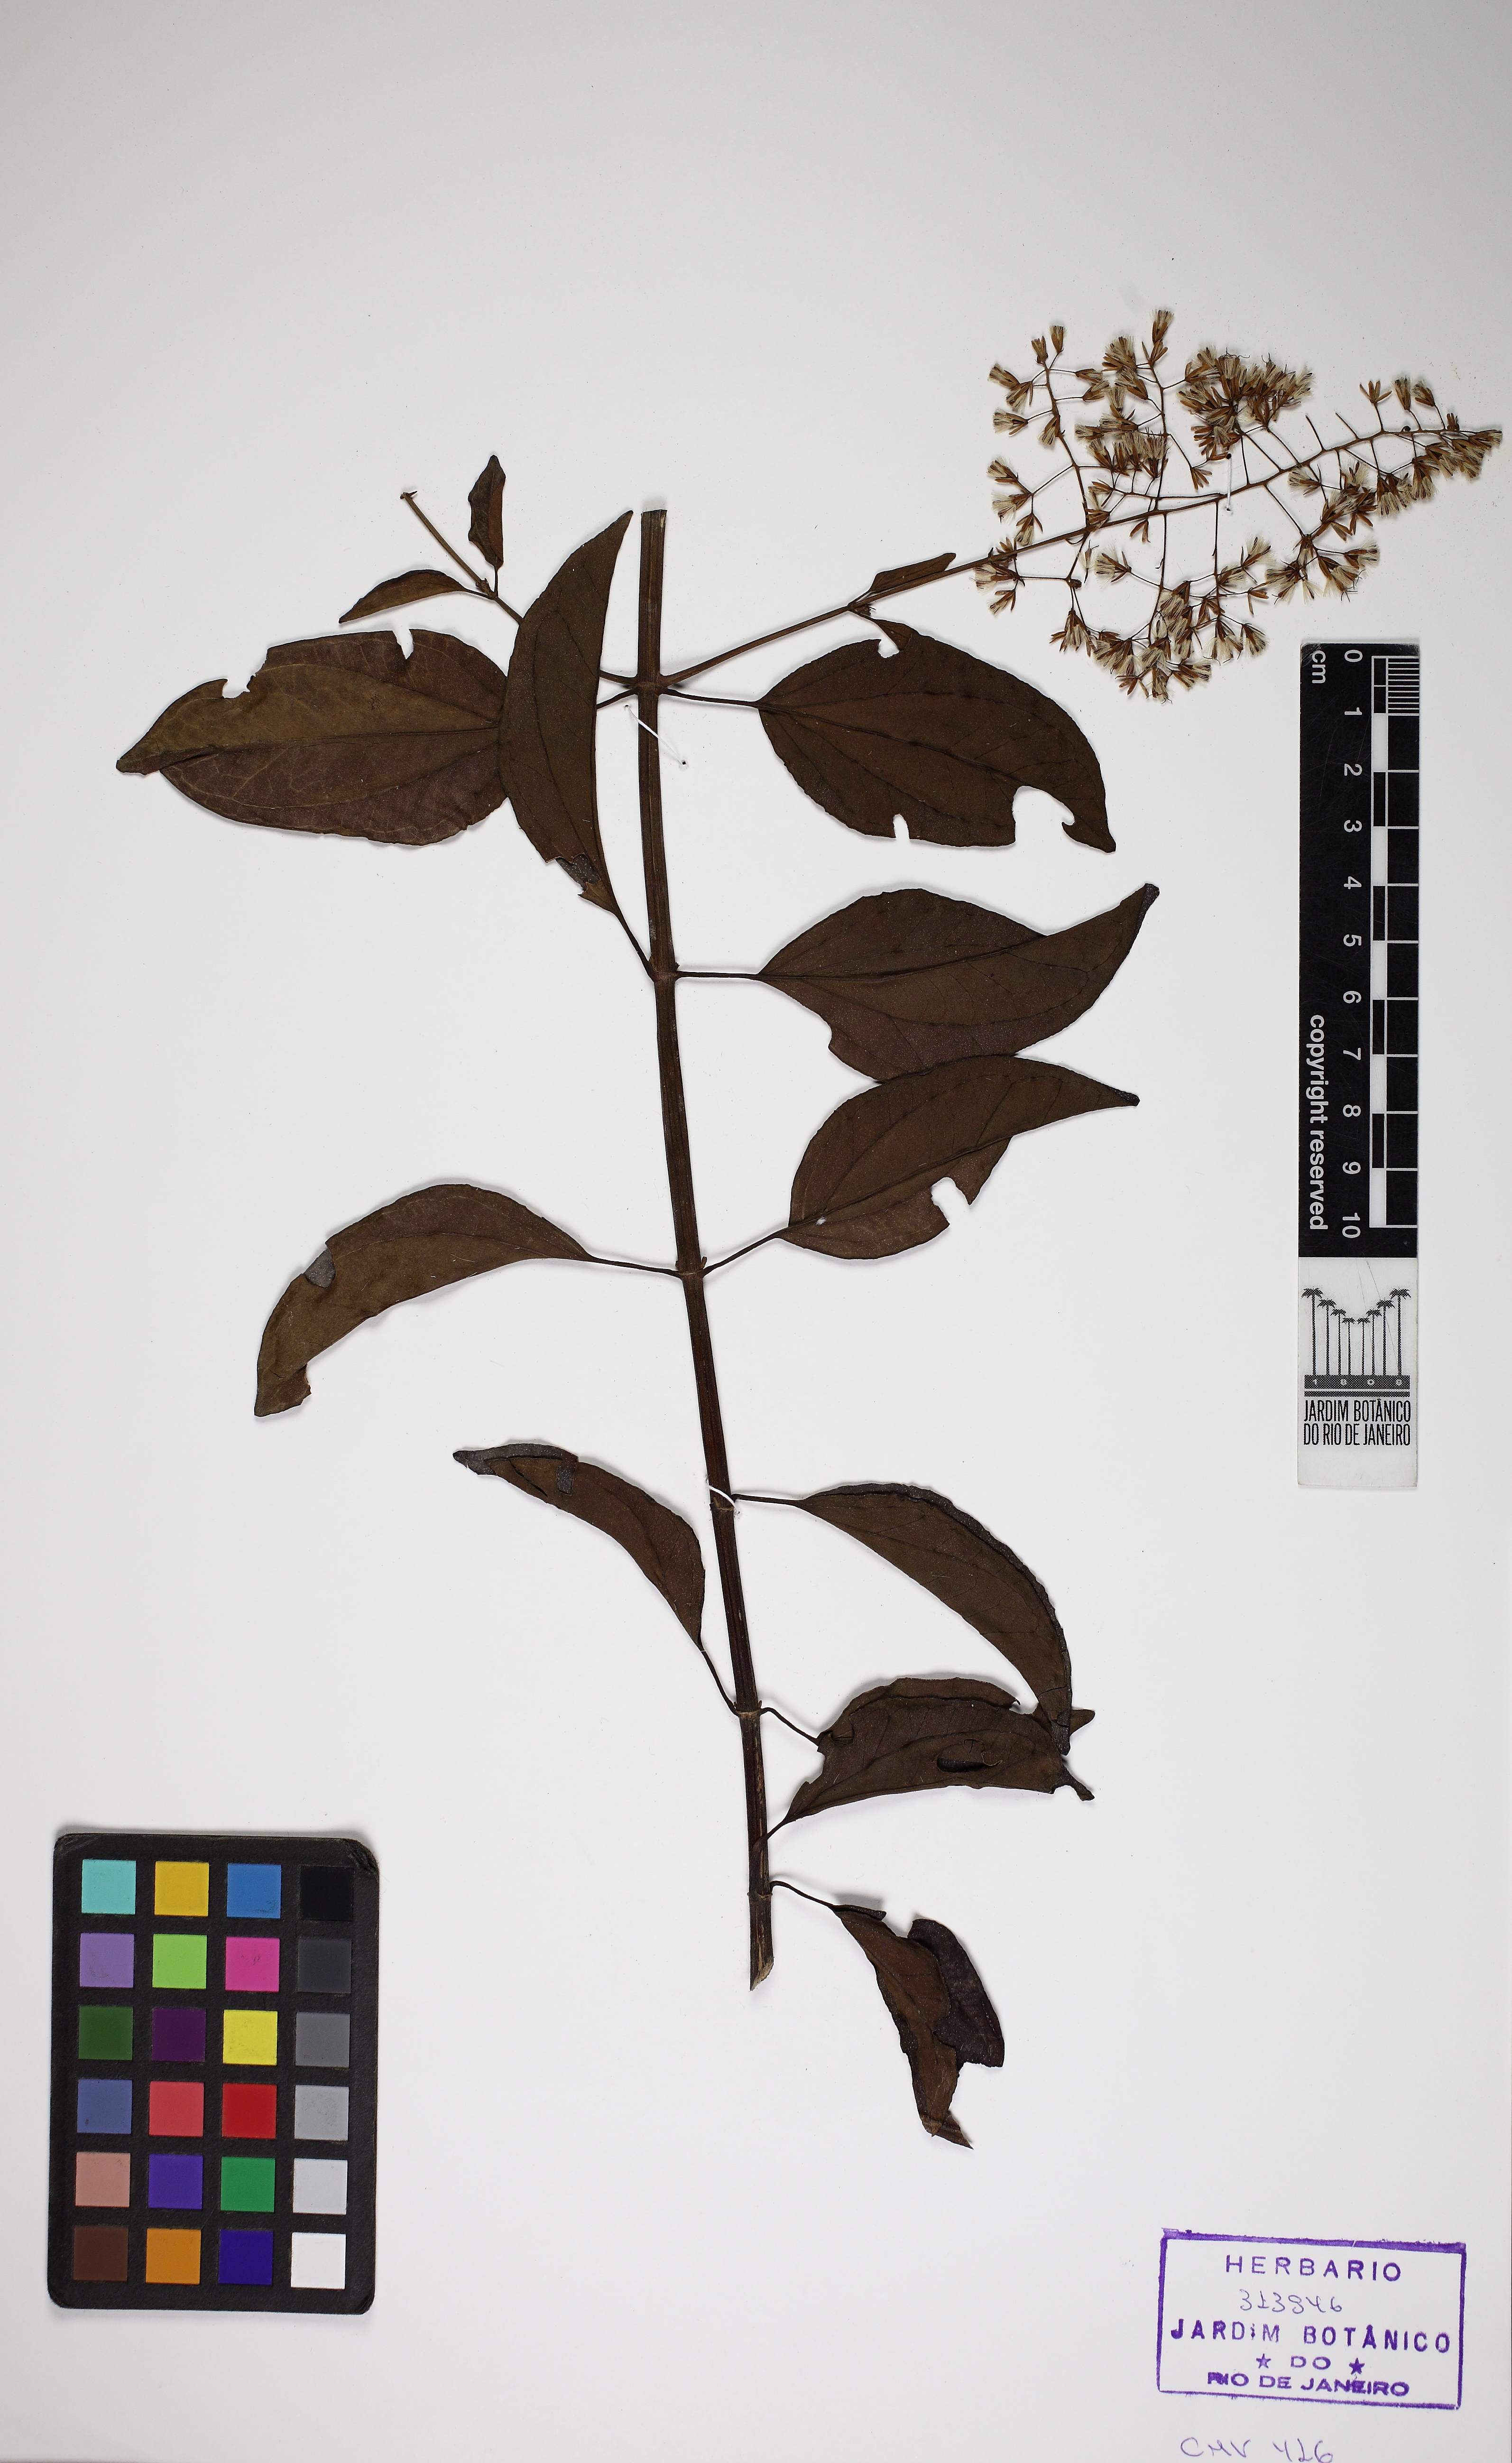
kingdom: Plantae
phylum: Tracheophyta
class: Magnoliopsida
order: Asterales
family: Asteraceae
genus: Mikania
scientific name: Mikania trinervis
